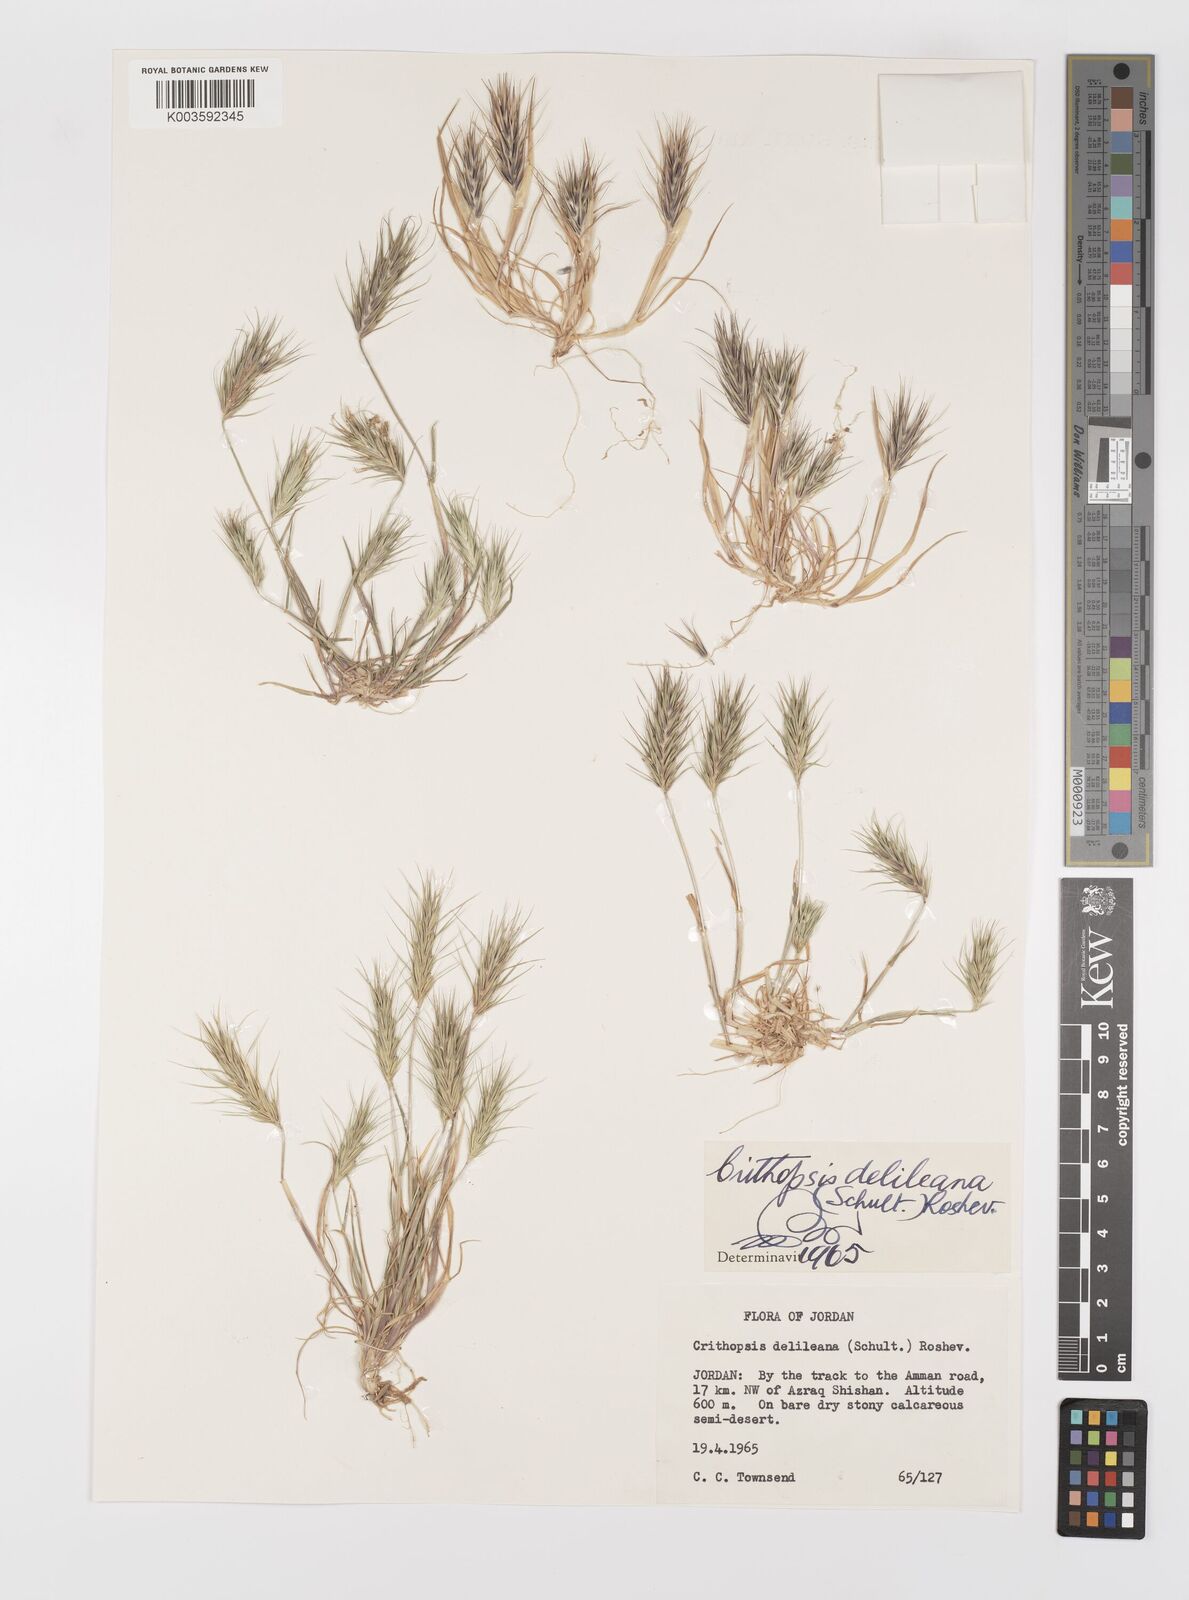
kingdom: Plantae
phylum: Tracheophyta
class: Liliopsida
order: Poales
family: Poaceae
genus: Crithopsis
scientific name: Crithopsis delileana
